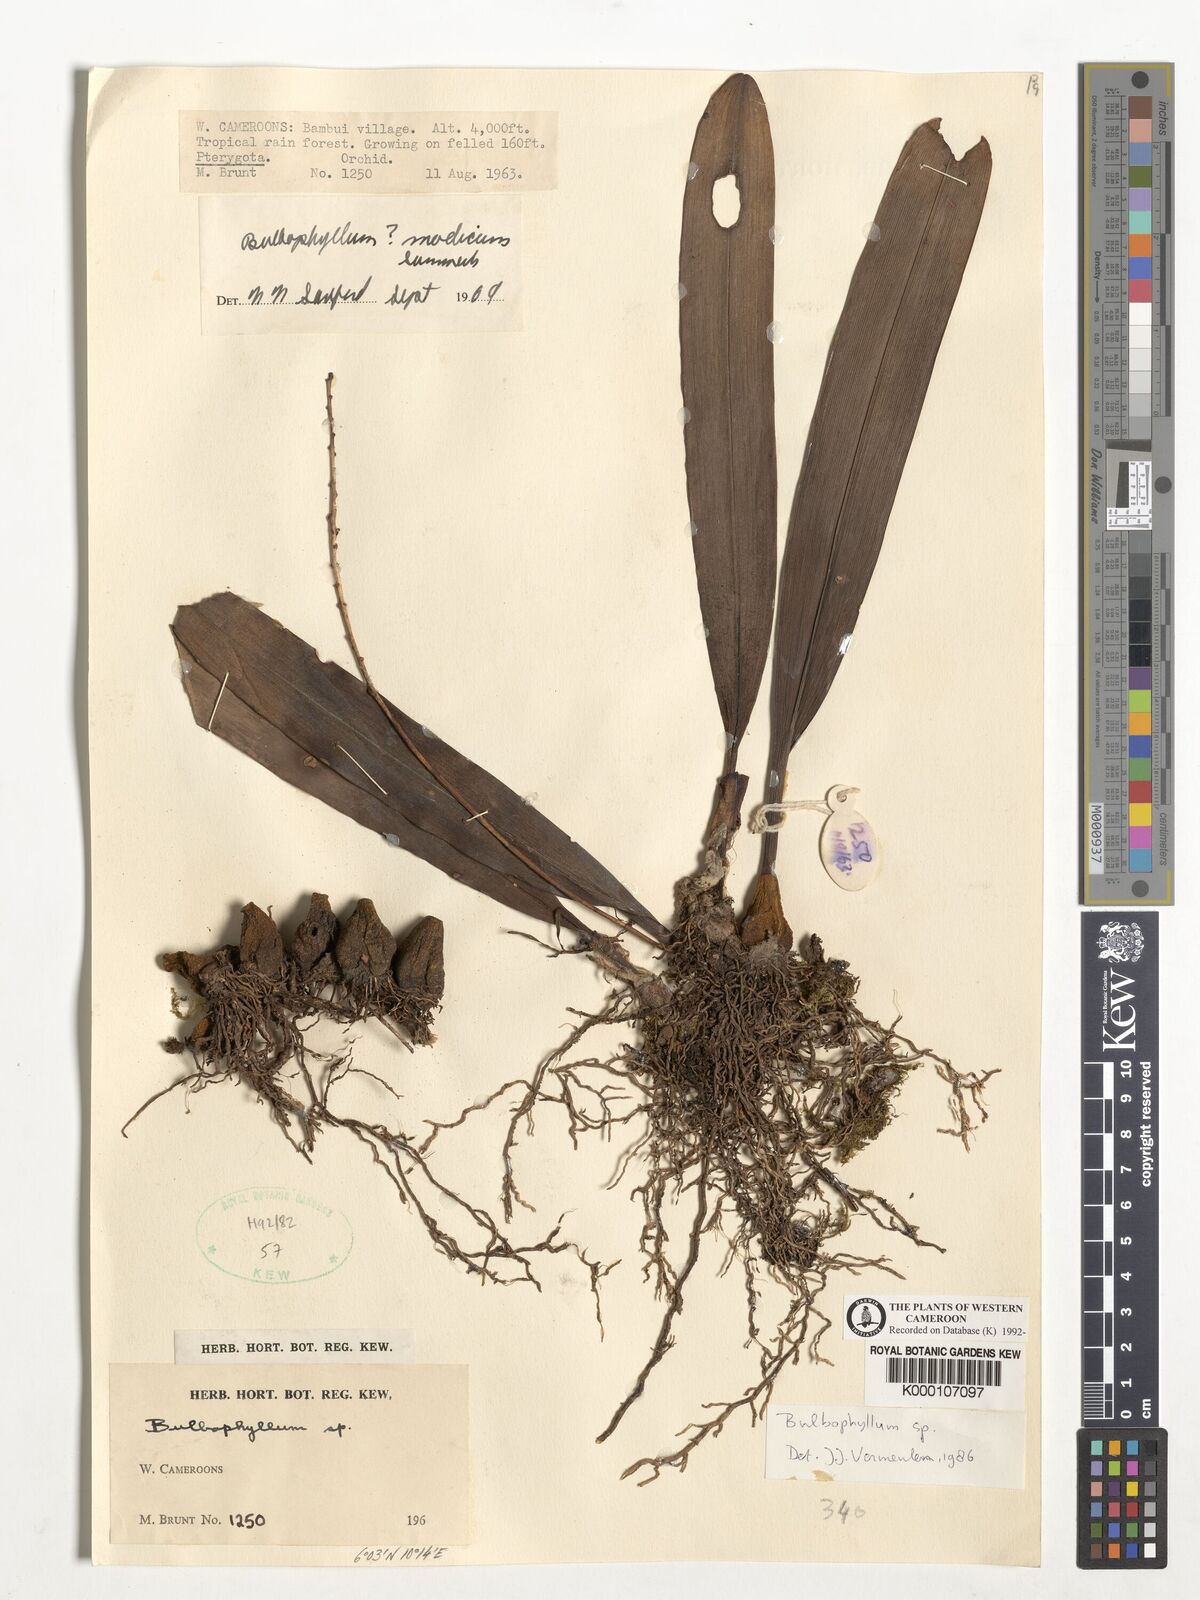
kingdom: Plantae
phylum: Tracheophyta
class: Liliopsida
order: Asparagales
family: Orchidaceae
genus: Bulbophyllum
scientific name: Bulbophyllum
